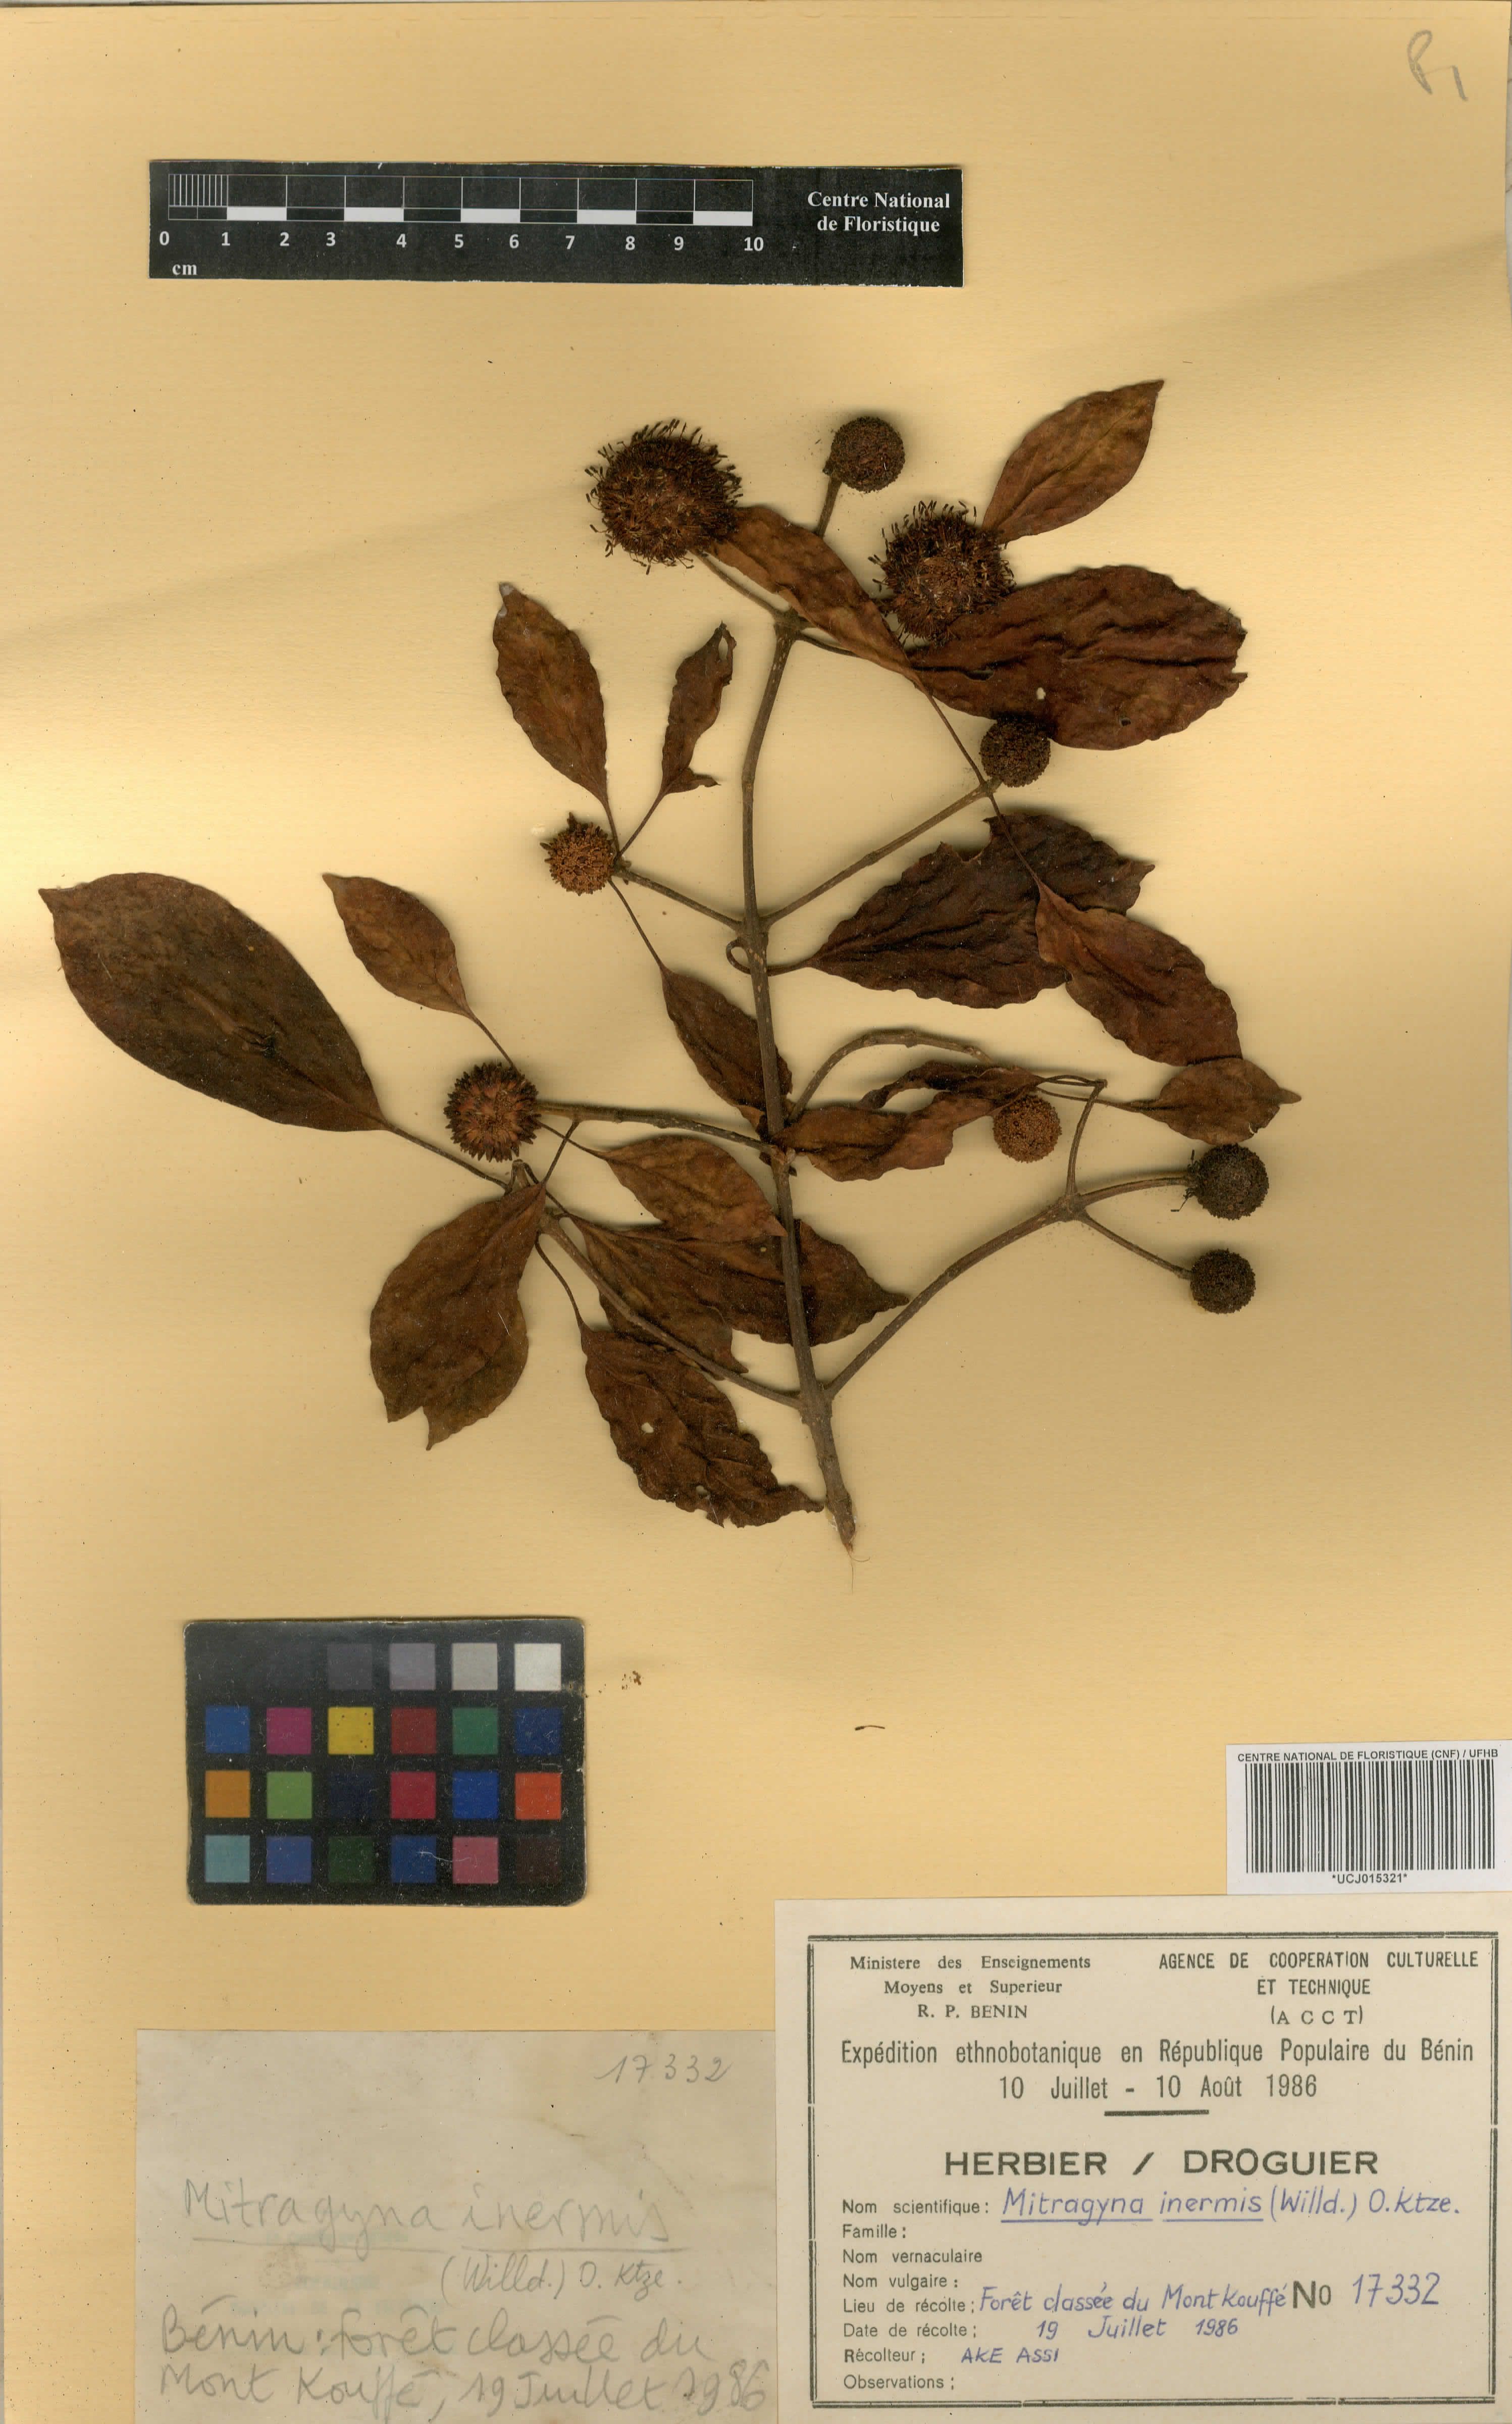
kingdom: Plantae
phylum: Tracheophyta
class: Magnoliopsida
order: Gentianales
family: Rubiaceae
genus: Mitragyna
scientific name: Mitragyna inermis
